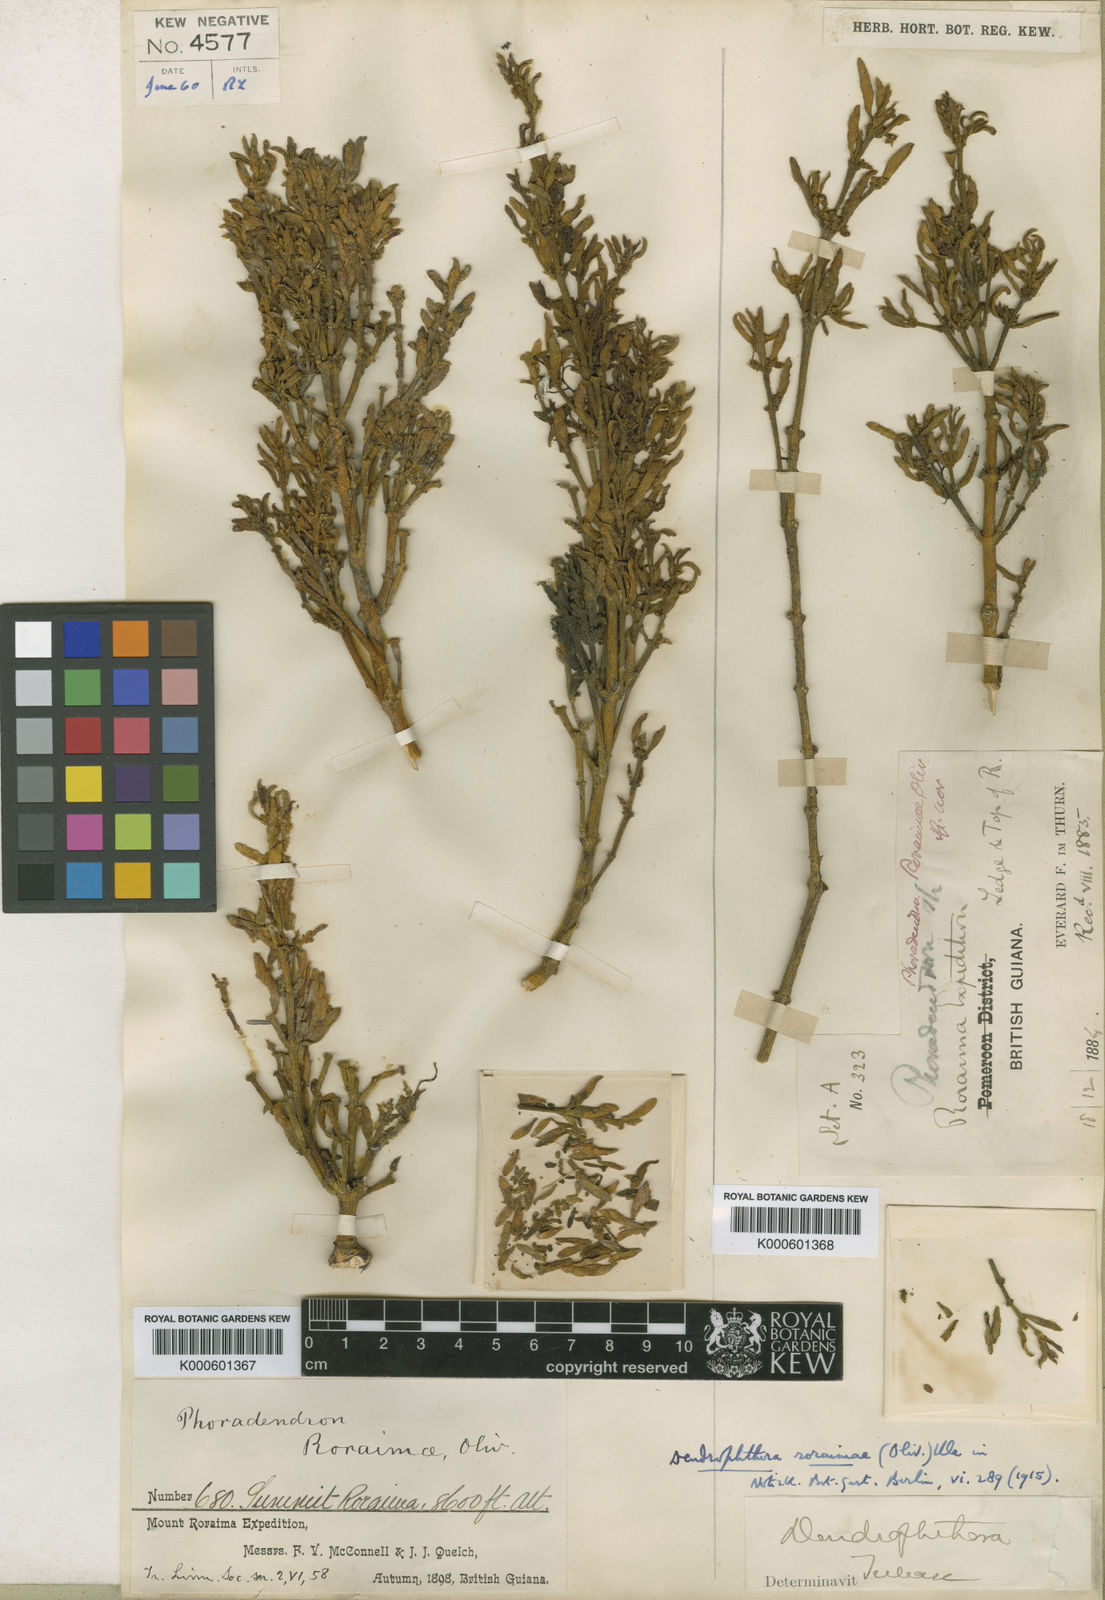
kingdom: Plantae
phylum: Tracheophyta
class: Magnoliopsida
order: Santalales
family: Viscaceae
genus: Dendrophthora
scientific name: Dendrophthora roraimae
